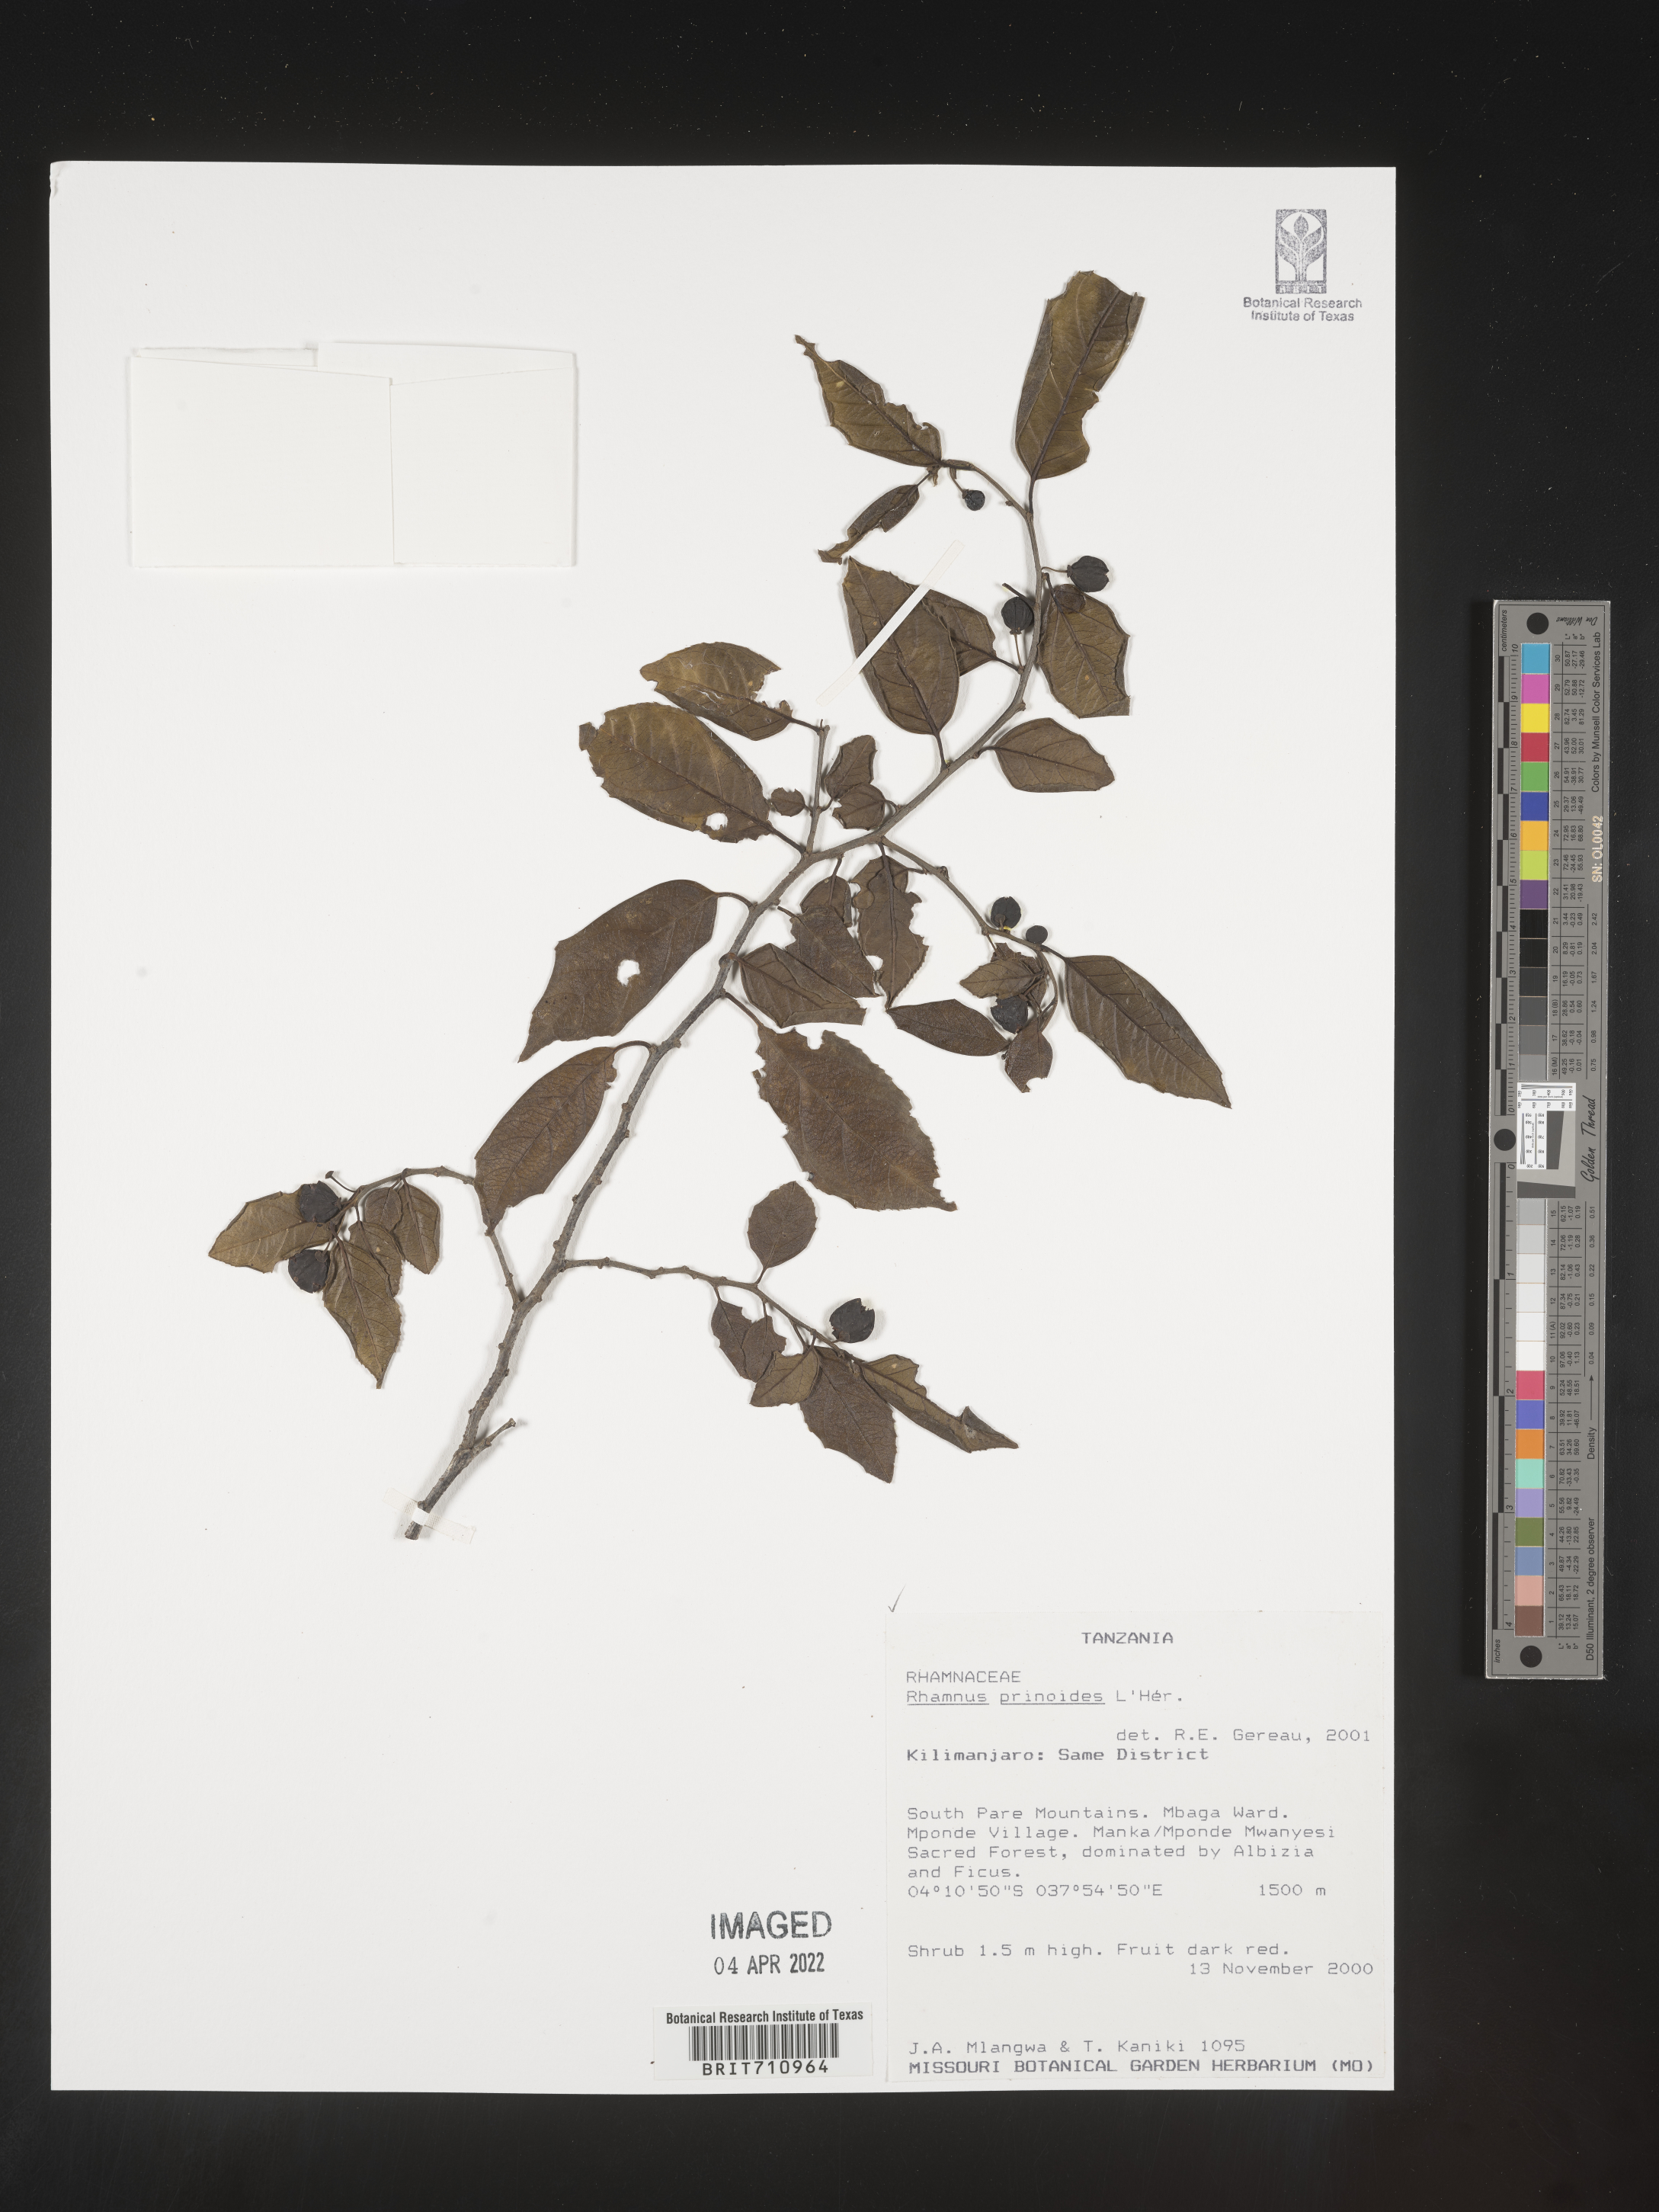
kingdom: Plantae
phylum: Tracheophyta
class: Magnoliopsida
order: Rosales
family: Rhamnaceae
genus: Rhamnus
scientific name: Rhamnus
